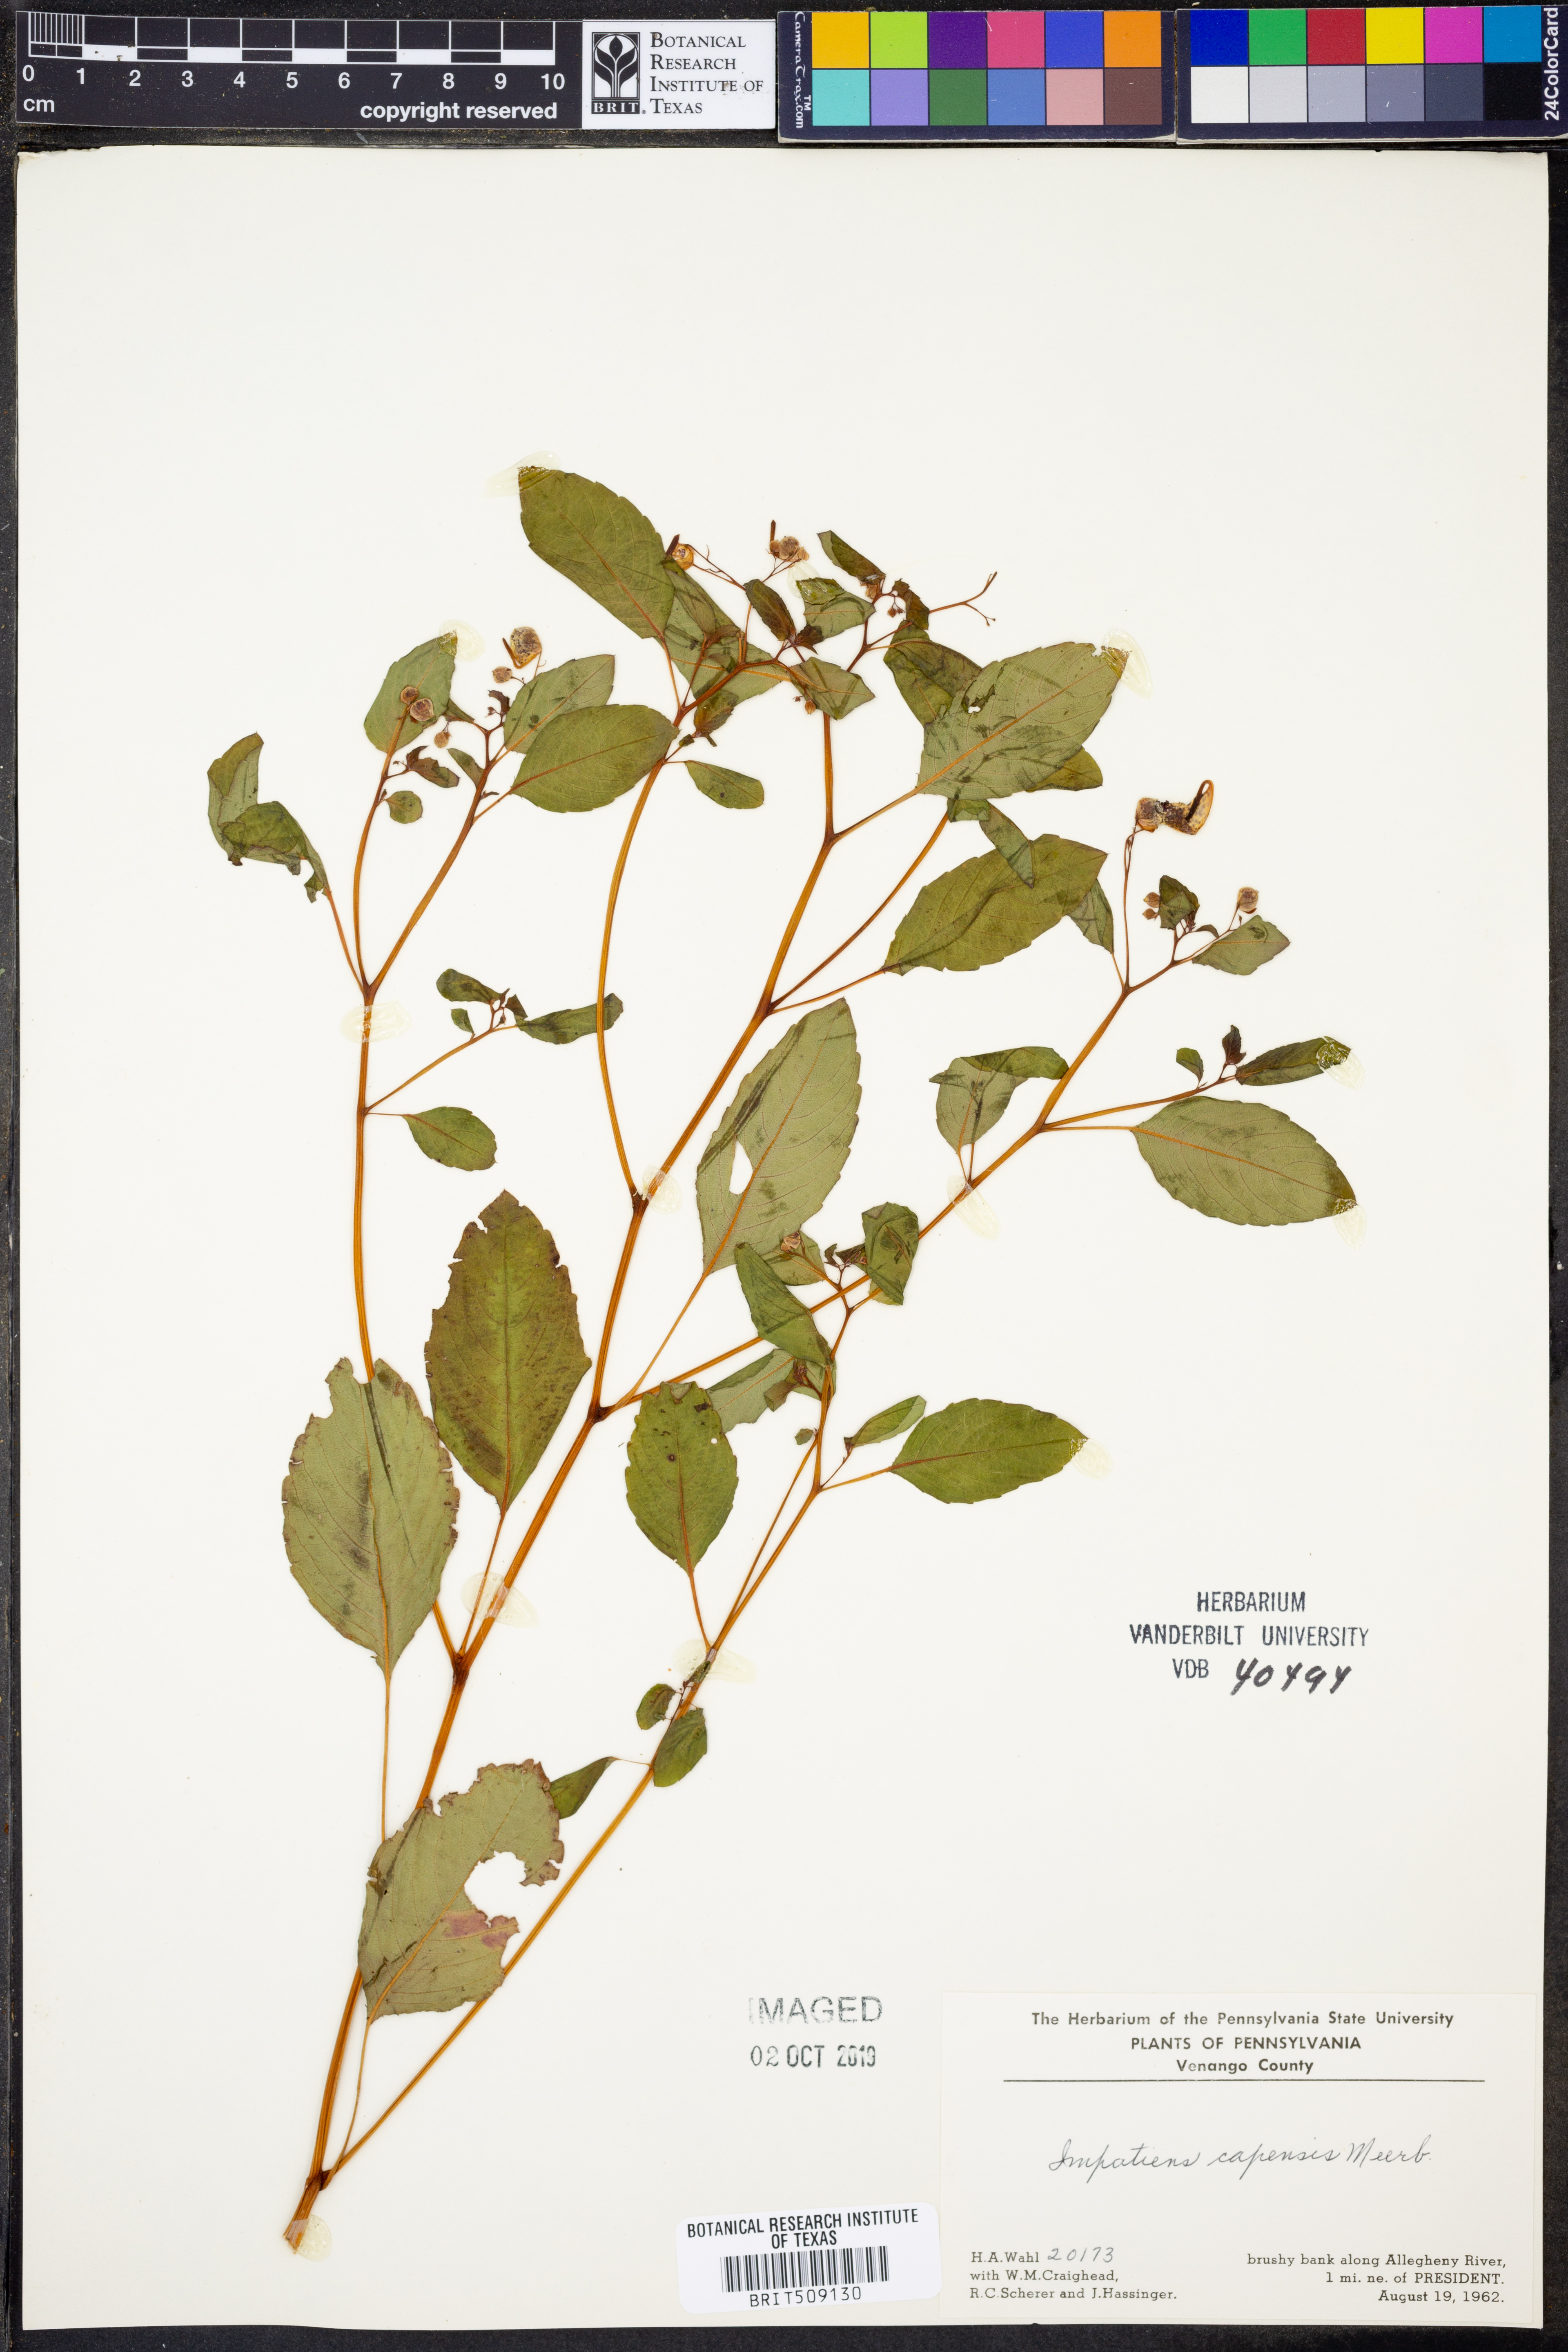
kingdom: Plantae
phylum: Tracheophyta
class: Magnoliopsida
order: Ericales
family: Balsaminaceae
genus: Impatiens
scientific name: Impatiens capensis
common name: Orange balsam
